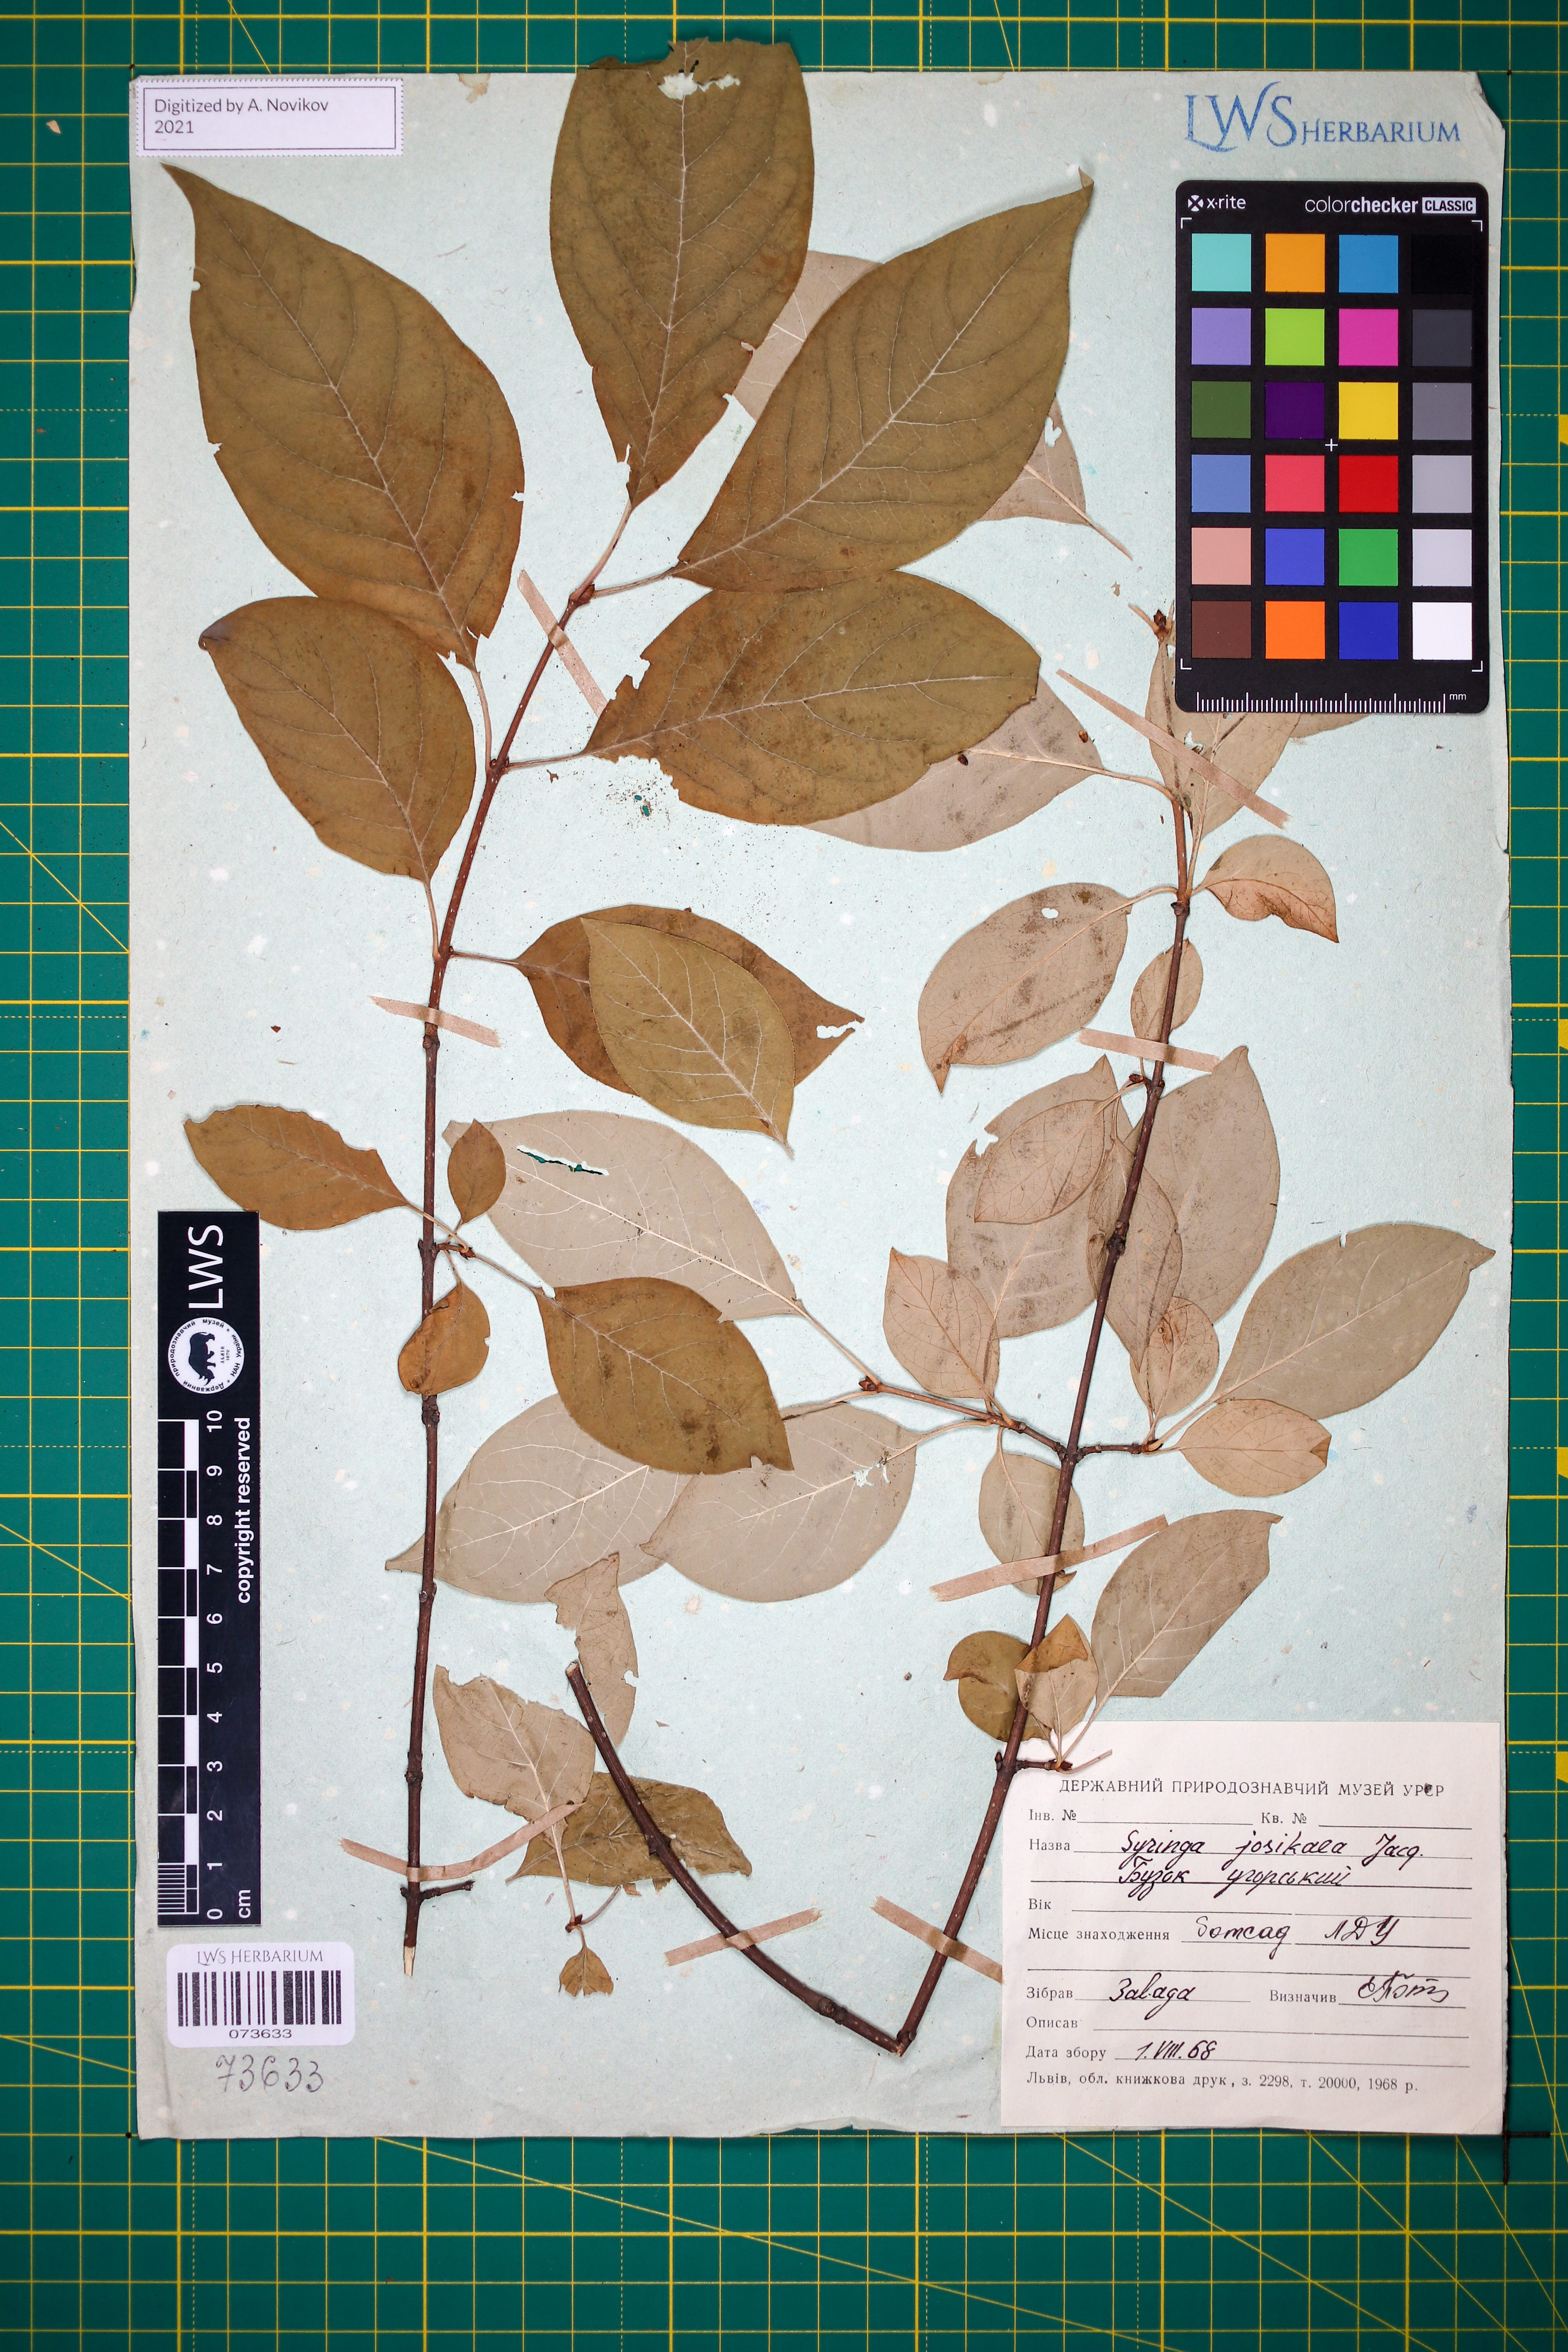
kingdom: Plantae
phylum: Tracheophyta
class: Magnoliopsida
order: Lamiales
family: Oleaceae
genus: Syringa
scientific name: Syringa josikaea
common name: Hungarian lilac
